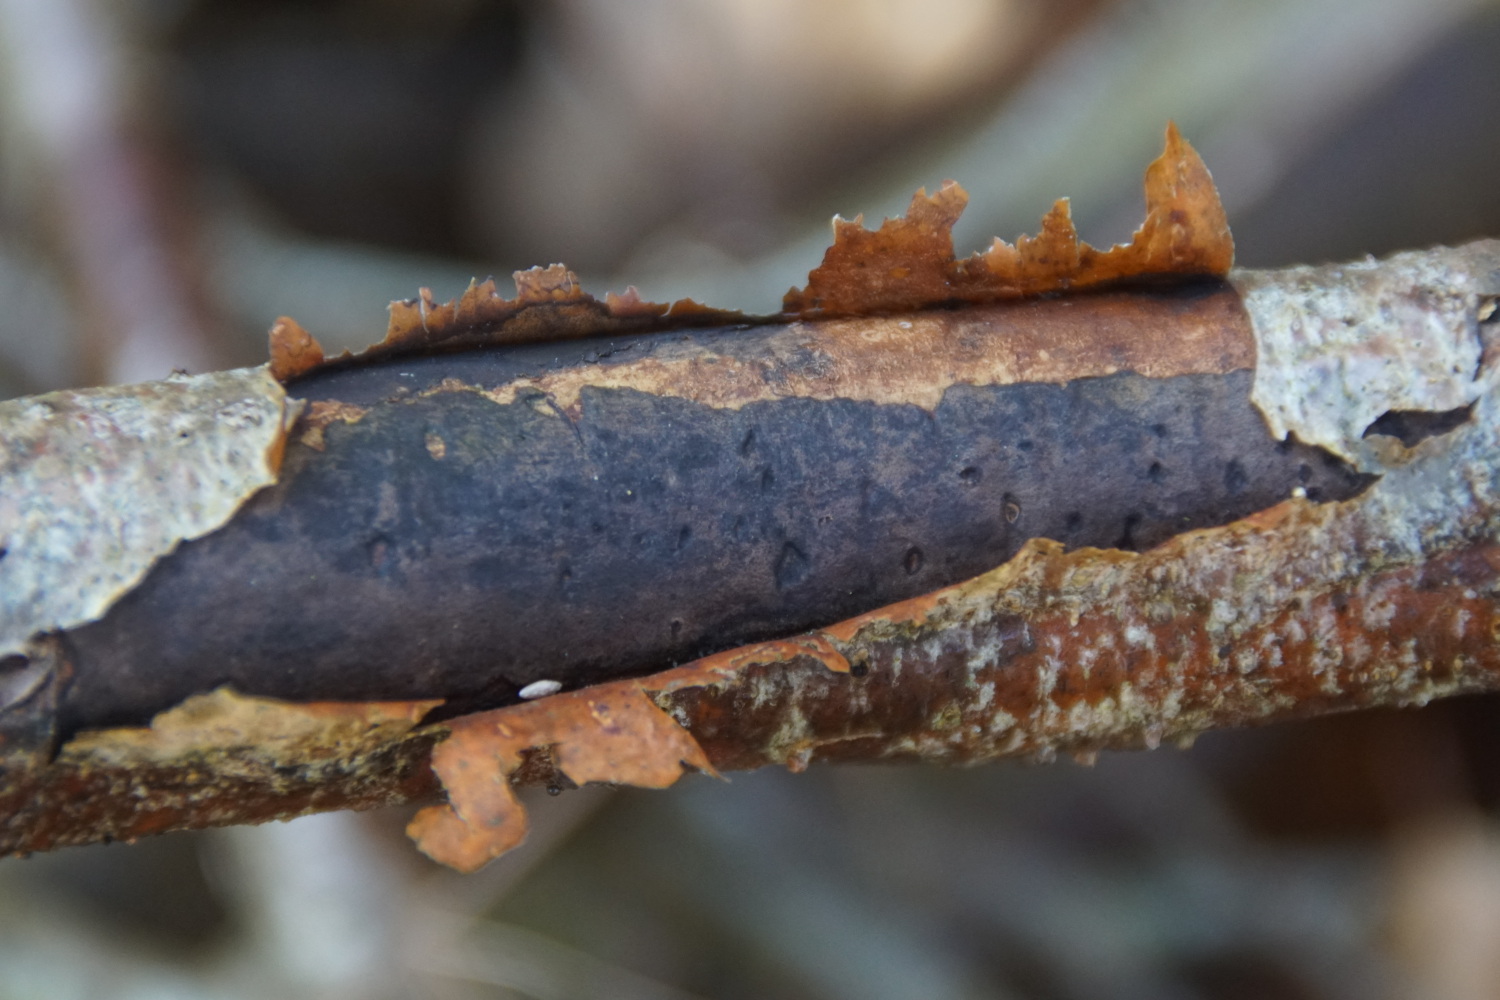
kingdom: Fungi
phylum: Ascomycota
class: Sordariomycetes
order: Xylariales
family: Diatrypaceae
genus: Diatrype
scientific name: Diatrype decorticata
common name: barksprænger-kulskorpe
